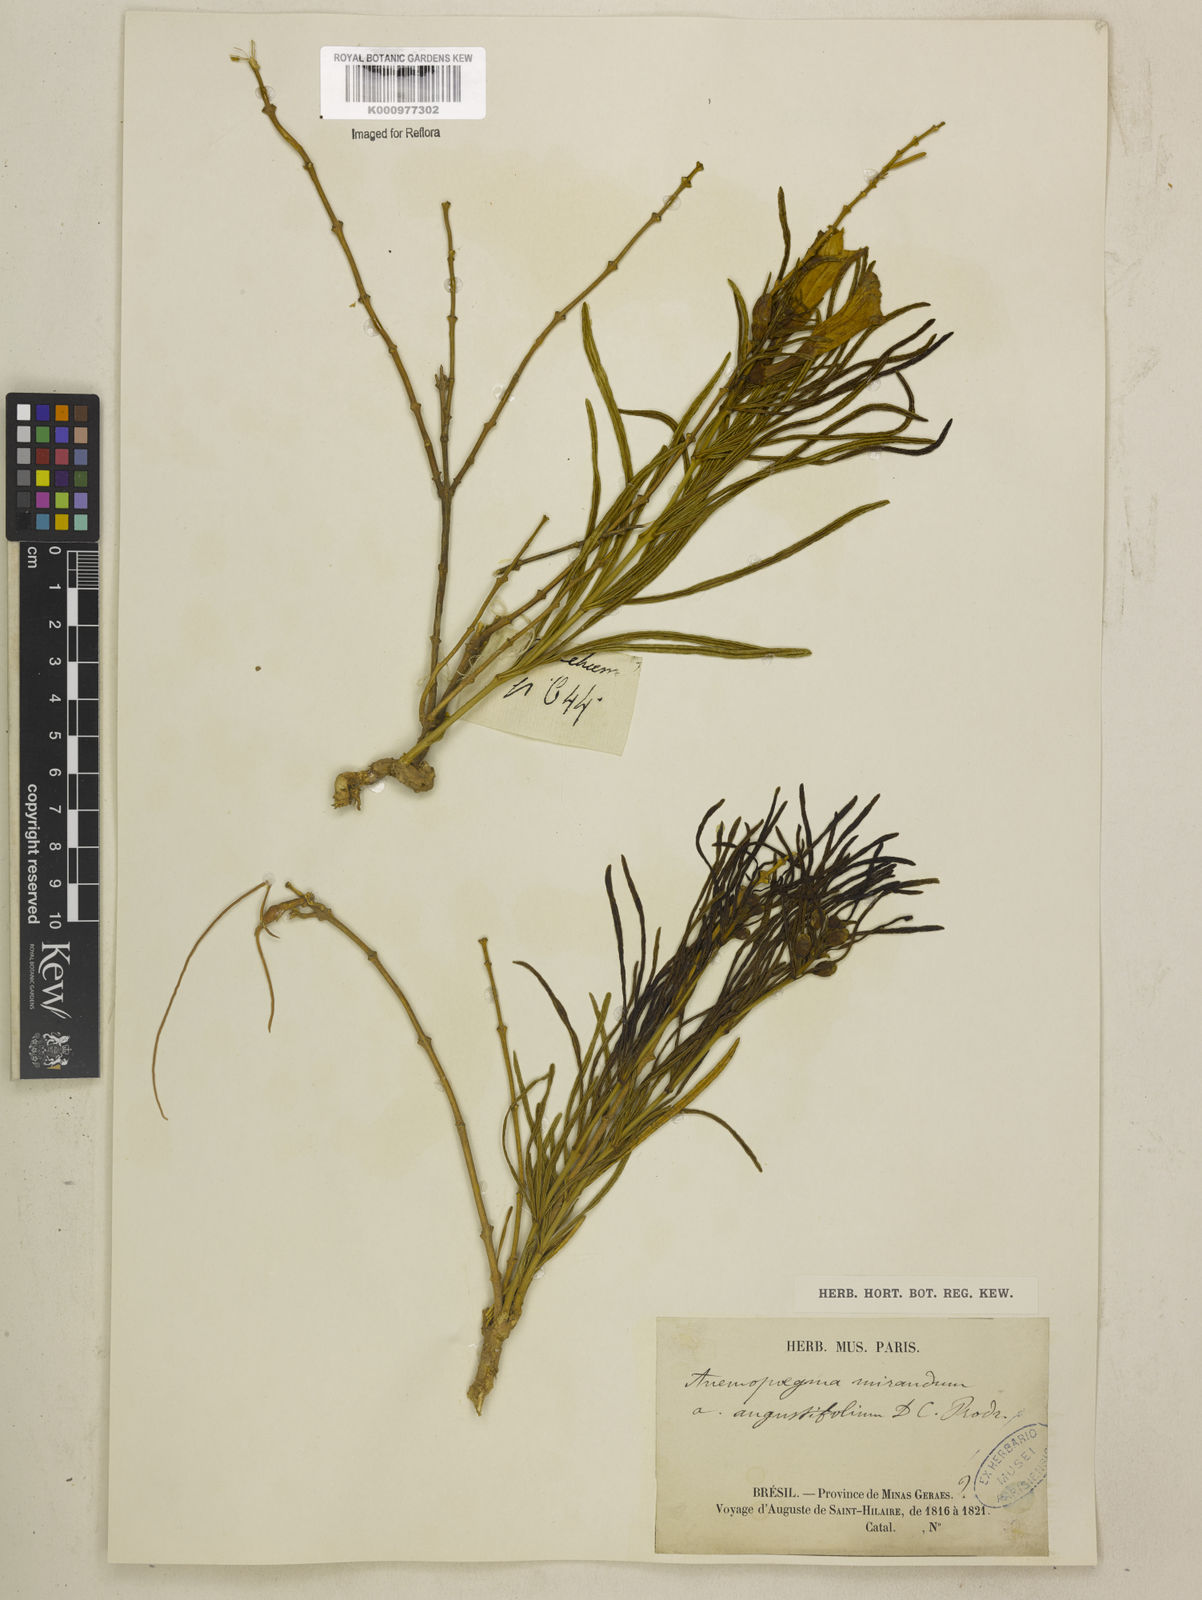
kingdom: Plantae
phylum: Tracheophyta
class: Magnoliopsida
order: Lamiales
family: Bignoniaceae
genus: Anemopaegma
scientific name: Anemopaegma arvense
